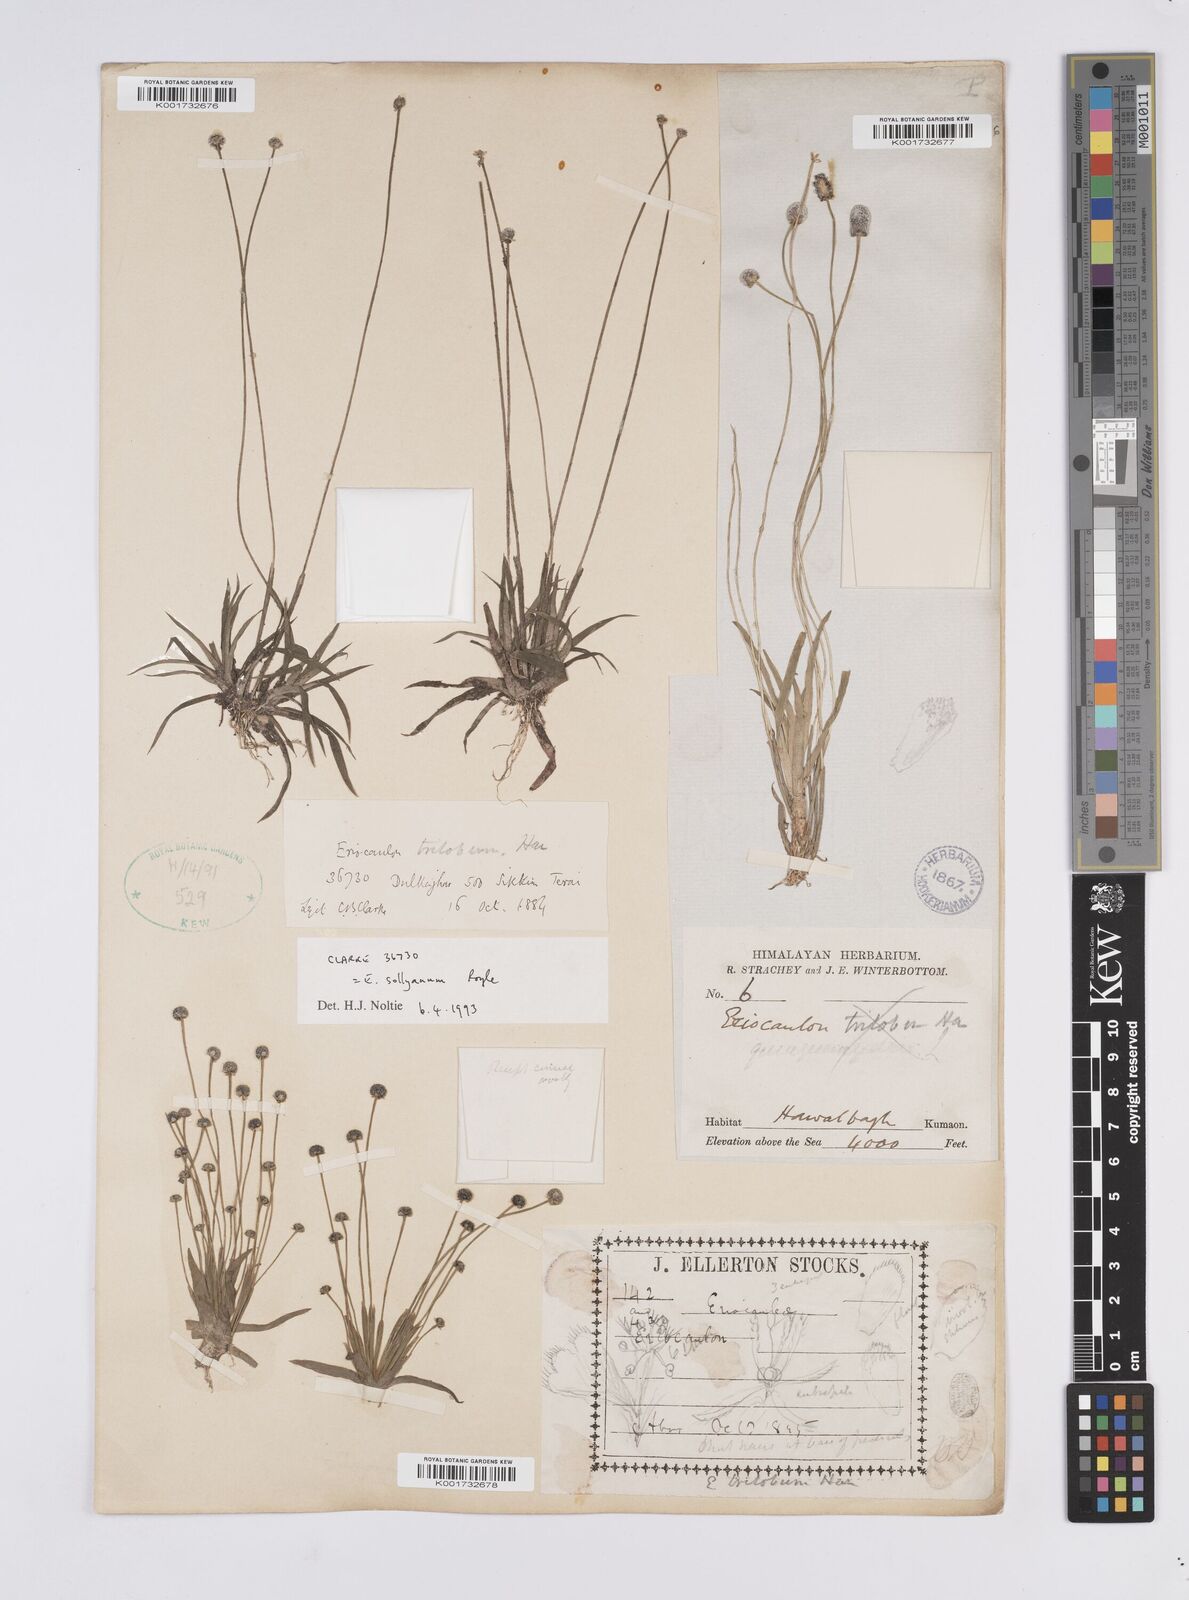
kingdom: Plantae
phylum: Tracheophyta
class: Liliopsida
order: Poales
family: Eriocaulaceae
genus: Eriocaulon
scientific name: Eriocaulon sollyanum
